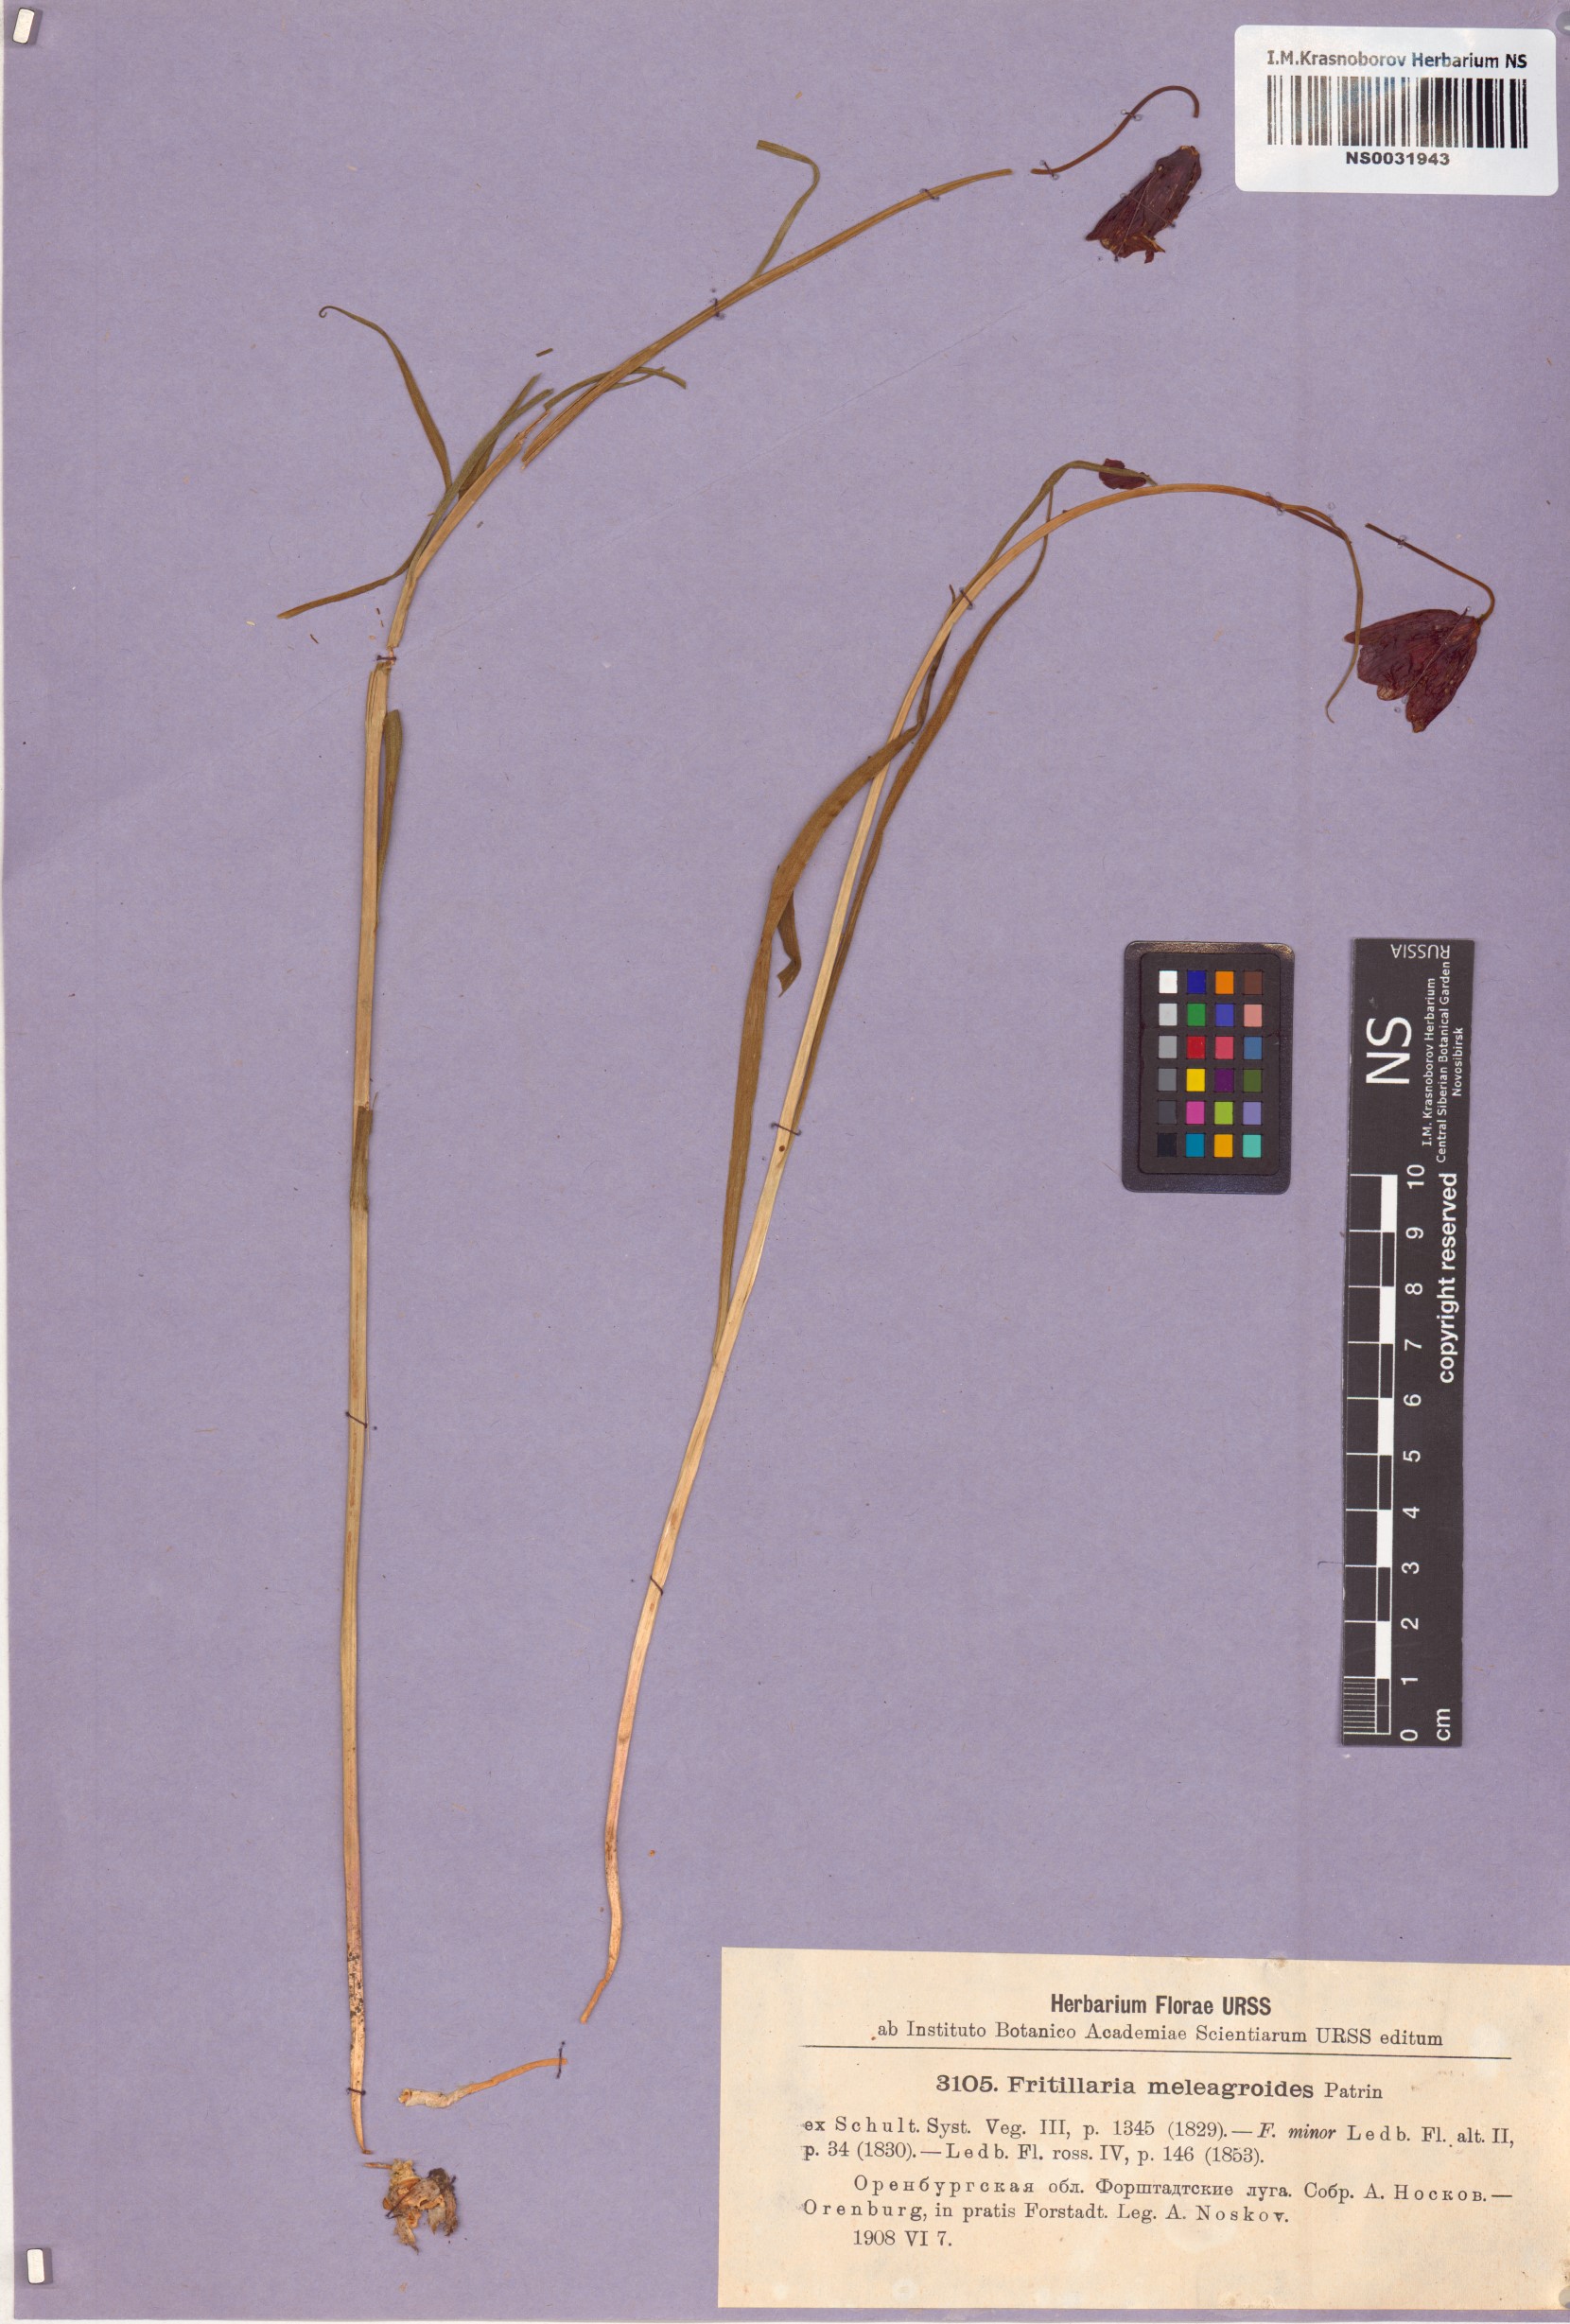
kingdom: Plantae
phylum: Tracheophyta
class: Liliopsida
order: Liliales
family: Liliaceae
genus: Fritillaria
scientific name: Fritillaria meleagroides
